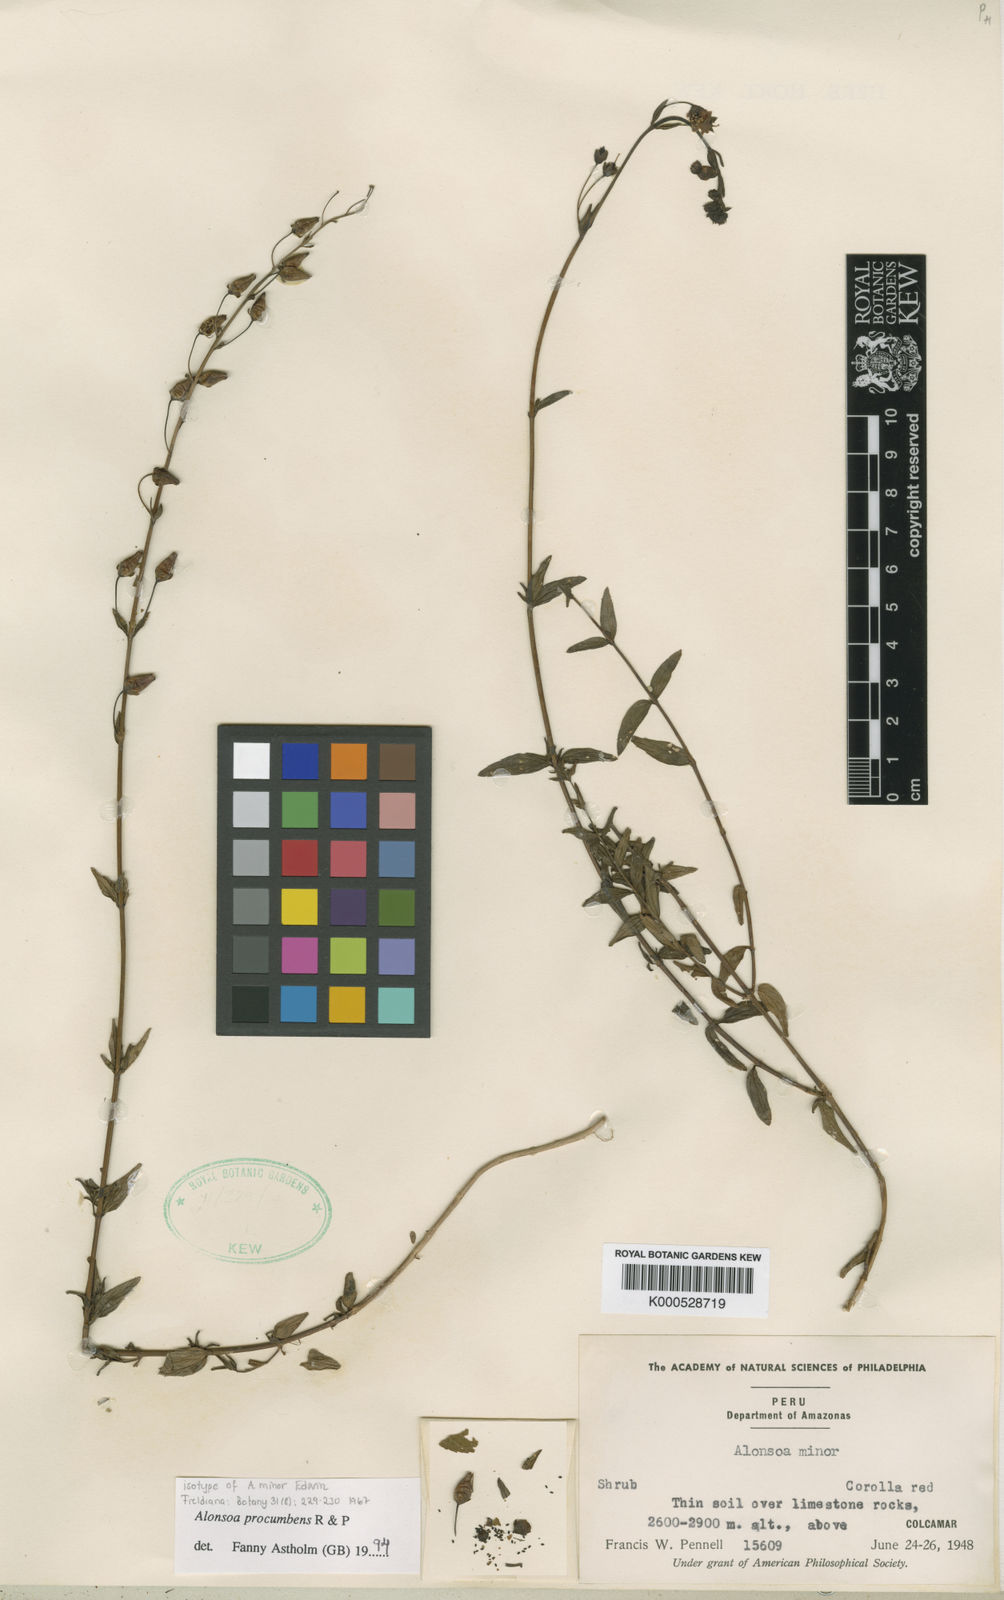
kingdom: Plantae
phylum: Tracheophyta
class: Magnoliopsida
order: Lamiales
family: Scrophulariaceae
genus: Alonsoa
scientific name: Alonsoa meridionalis
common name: Maskflower
